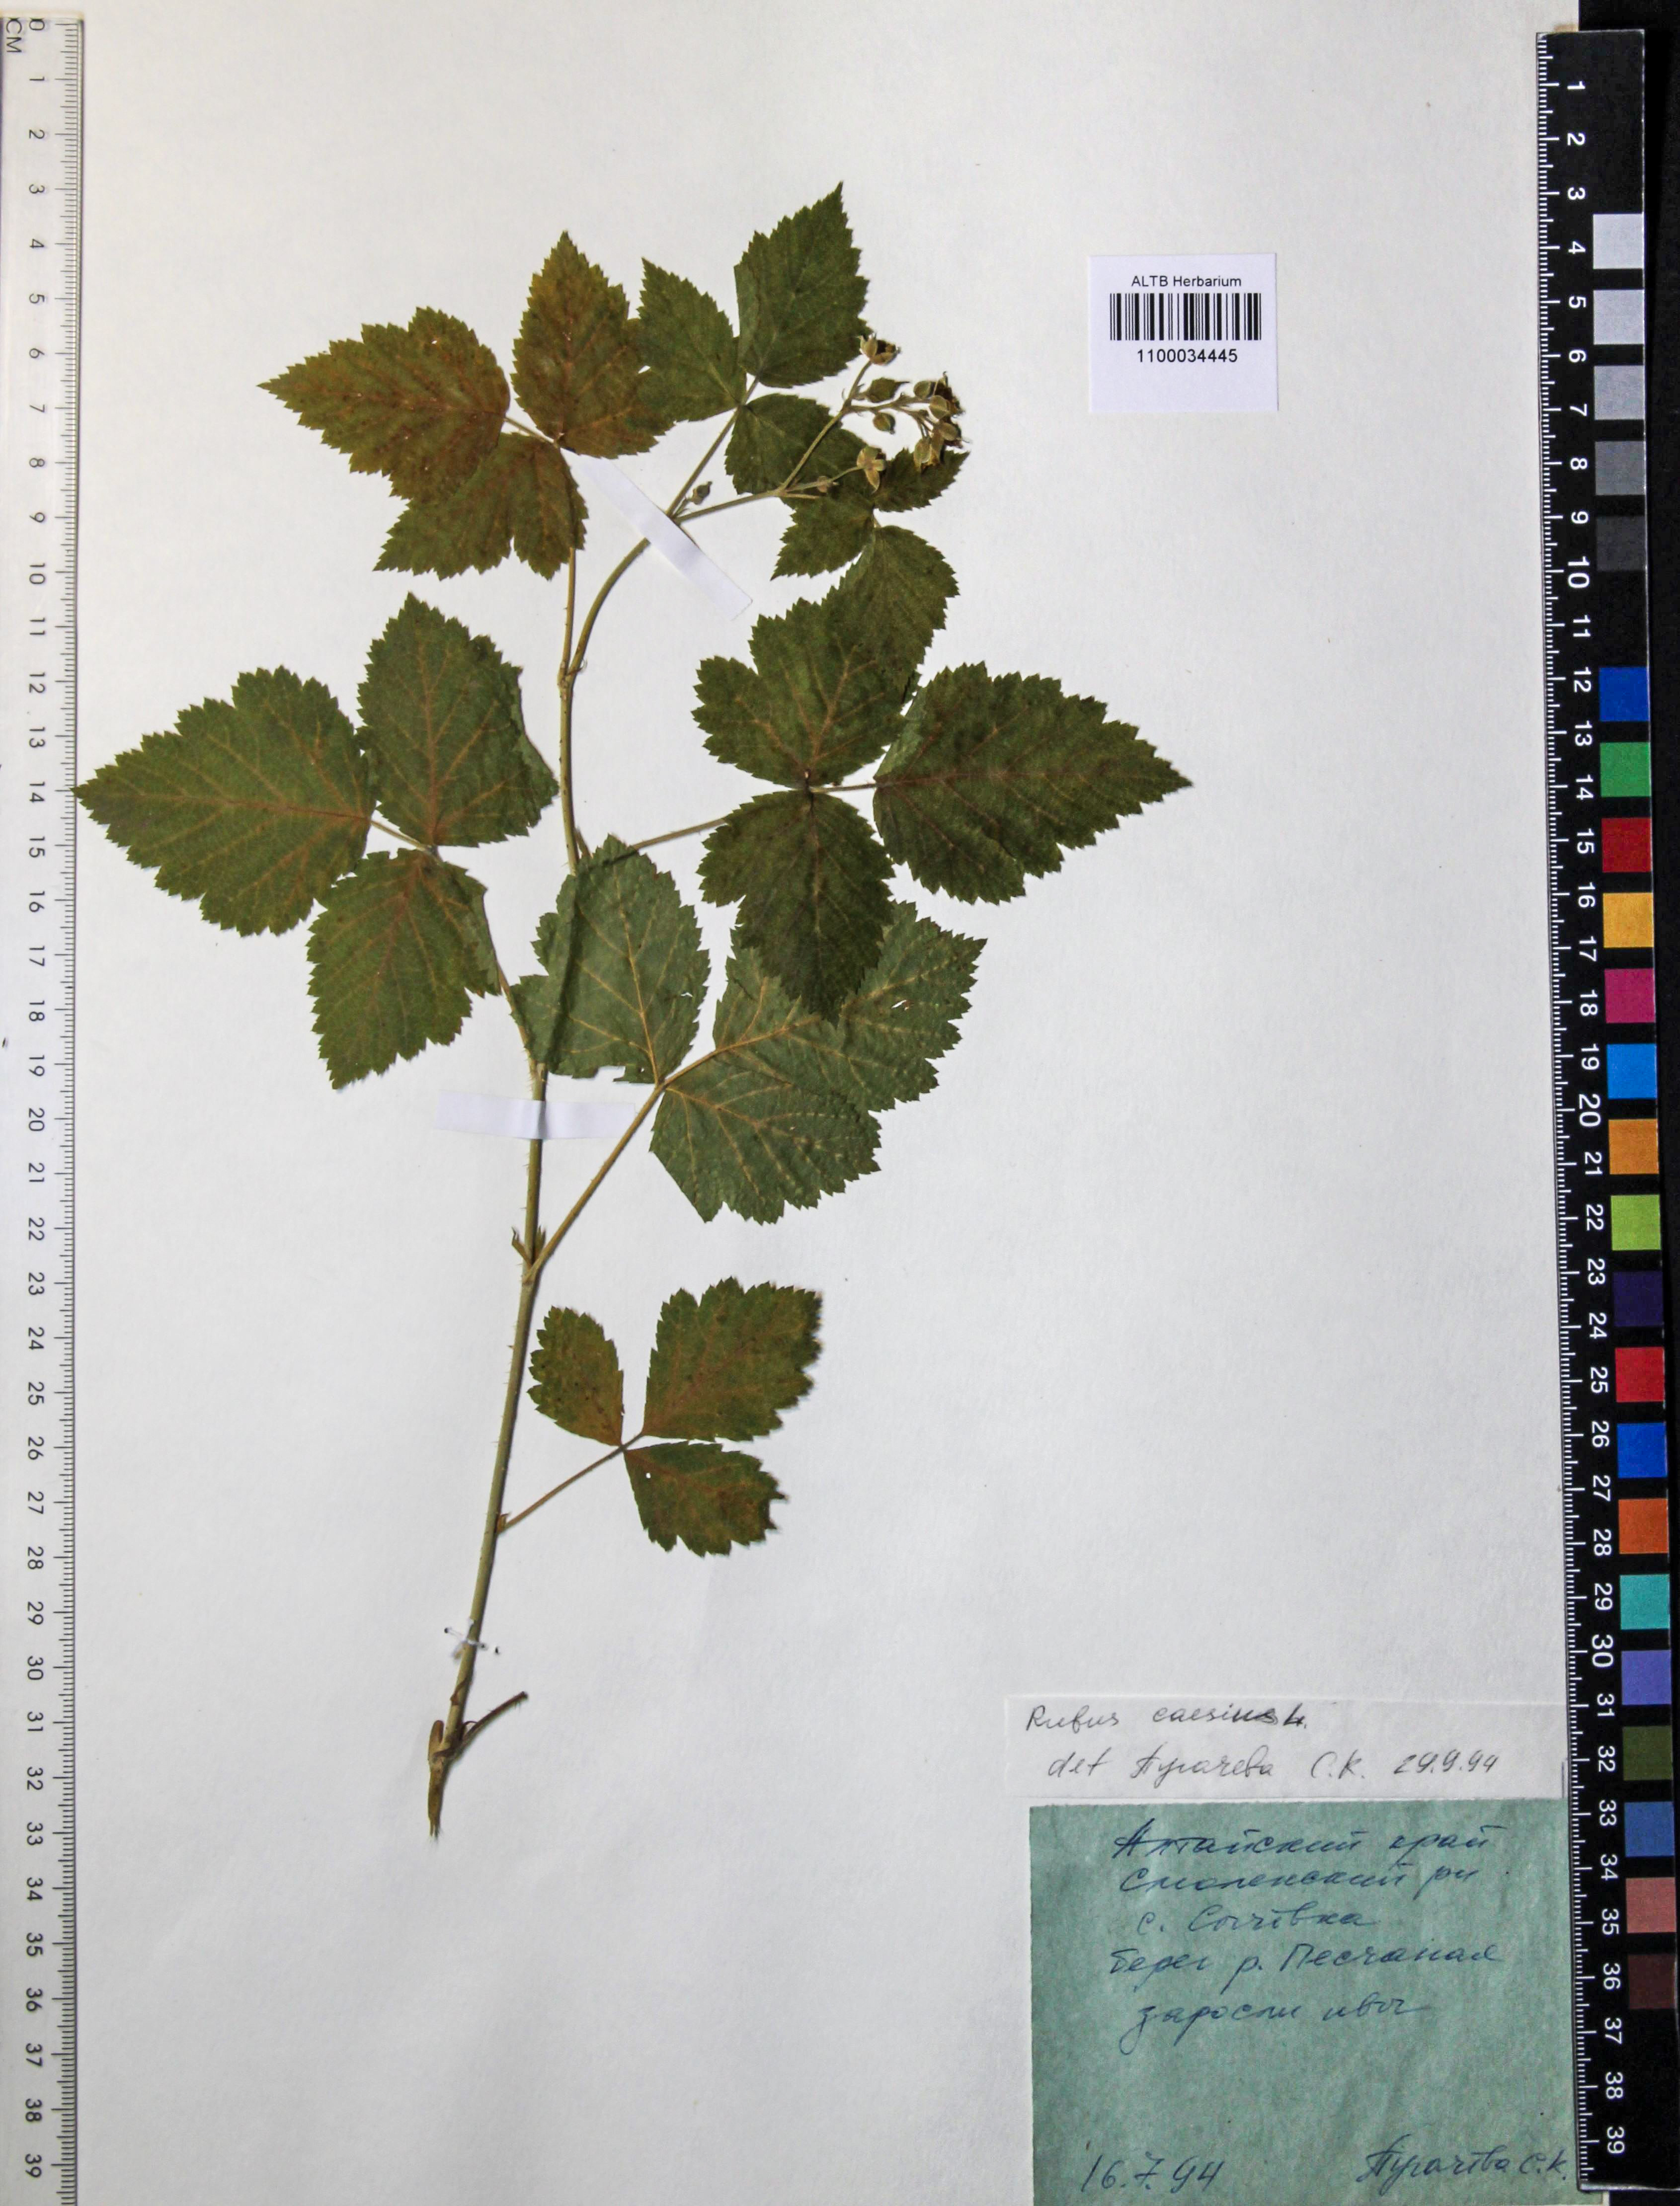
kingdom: Plantae
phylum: Tracheophyta
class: Magnoliopsida
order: Rosales
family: Rosaceae
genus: Rubus
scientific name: Rubus caesius
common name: Dewberry
